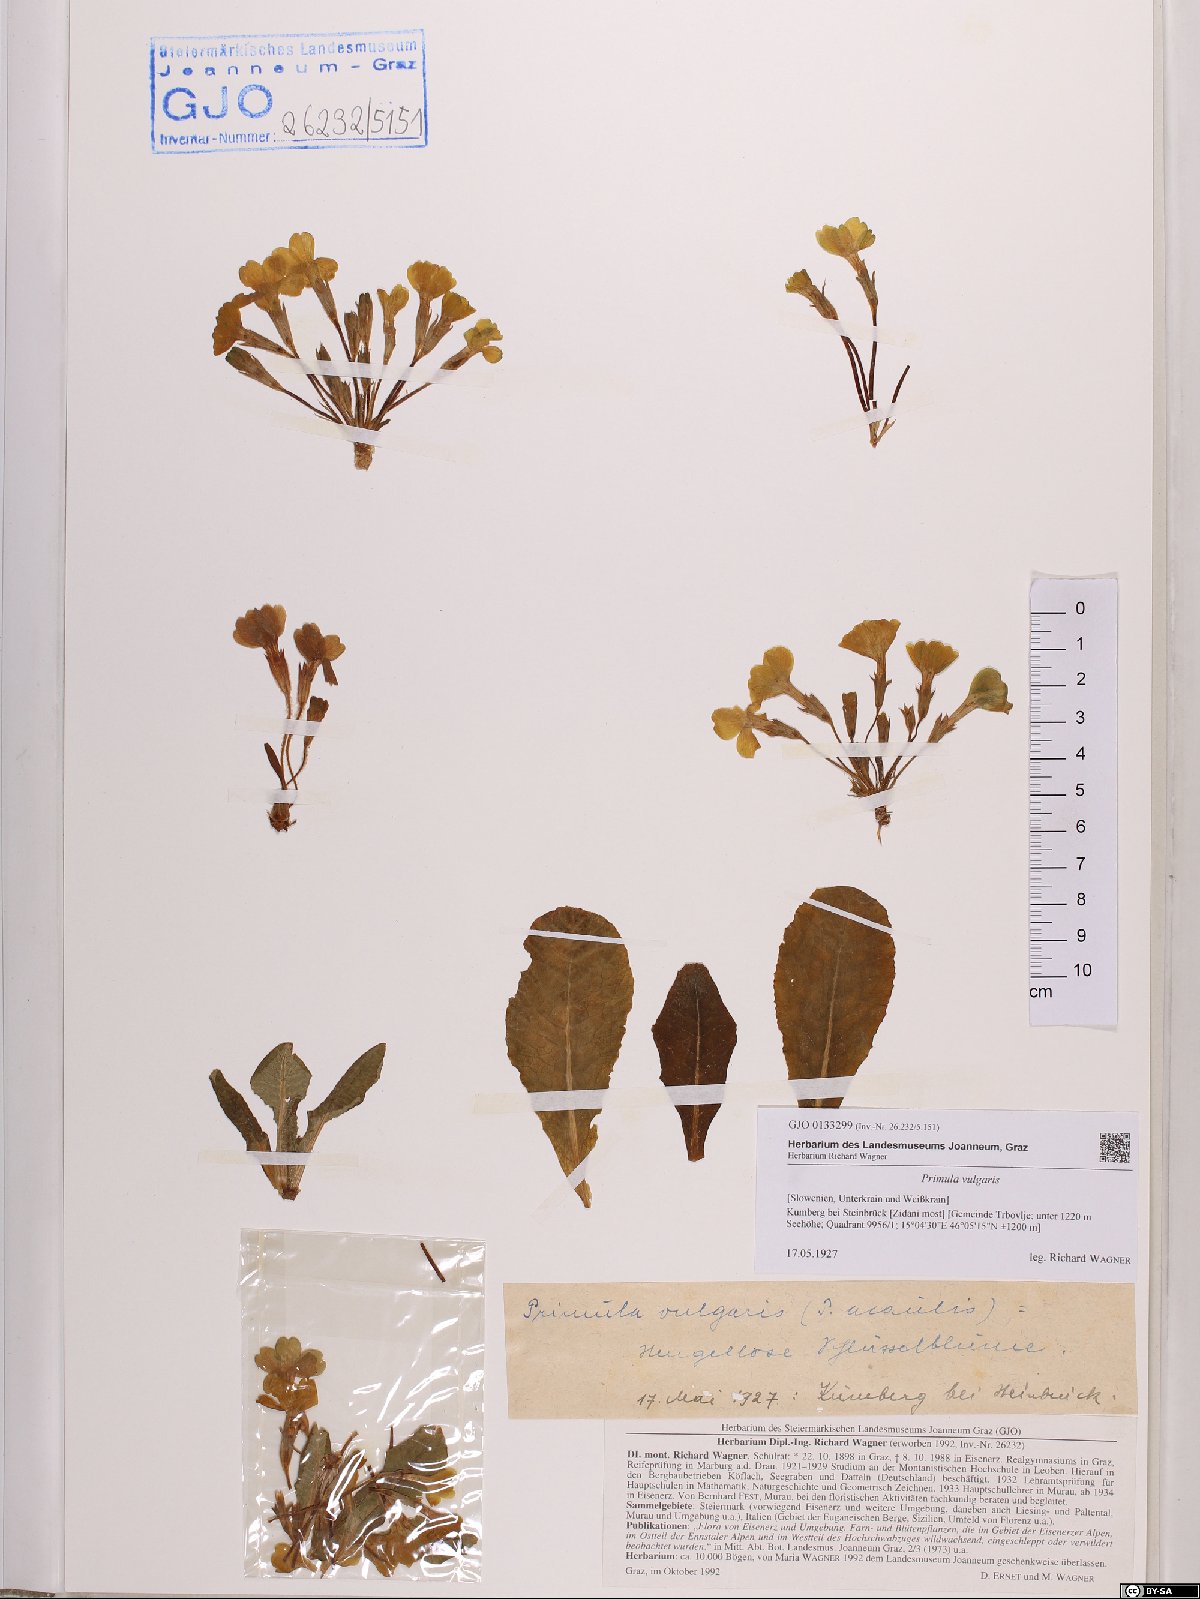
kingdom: Plantae
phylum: Tracheophyta
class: Magnoliopsida
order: Ericales
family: Primulaceae
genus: Primula
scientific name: Primula vulgaris
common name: Primrose
